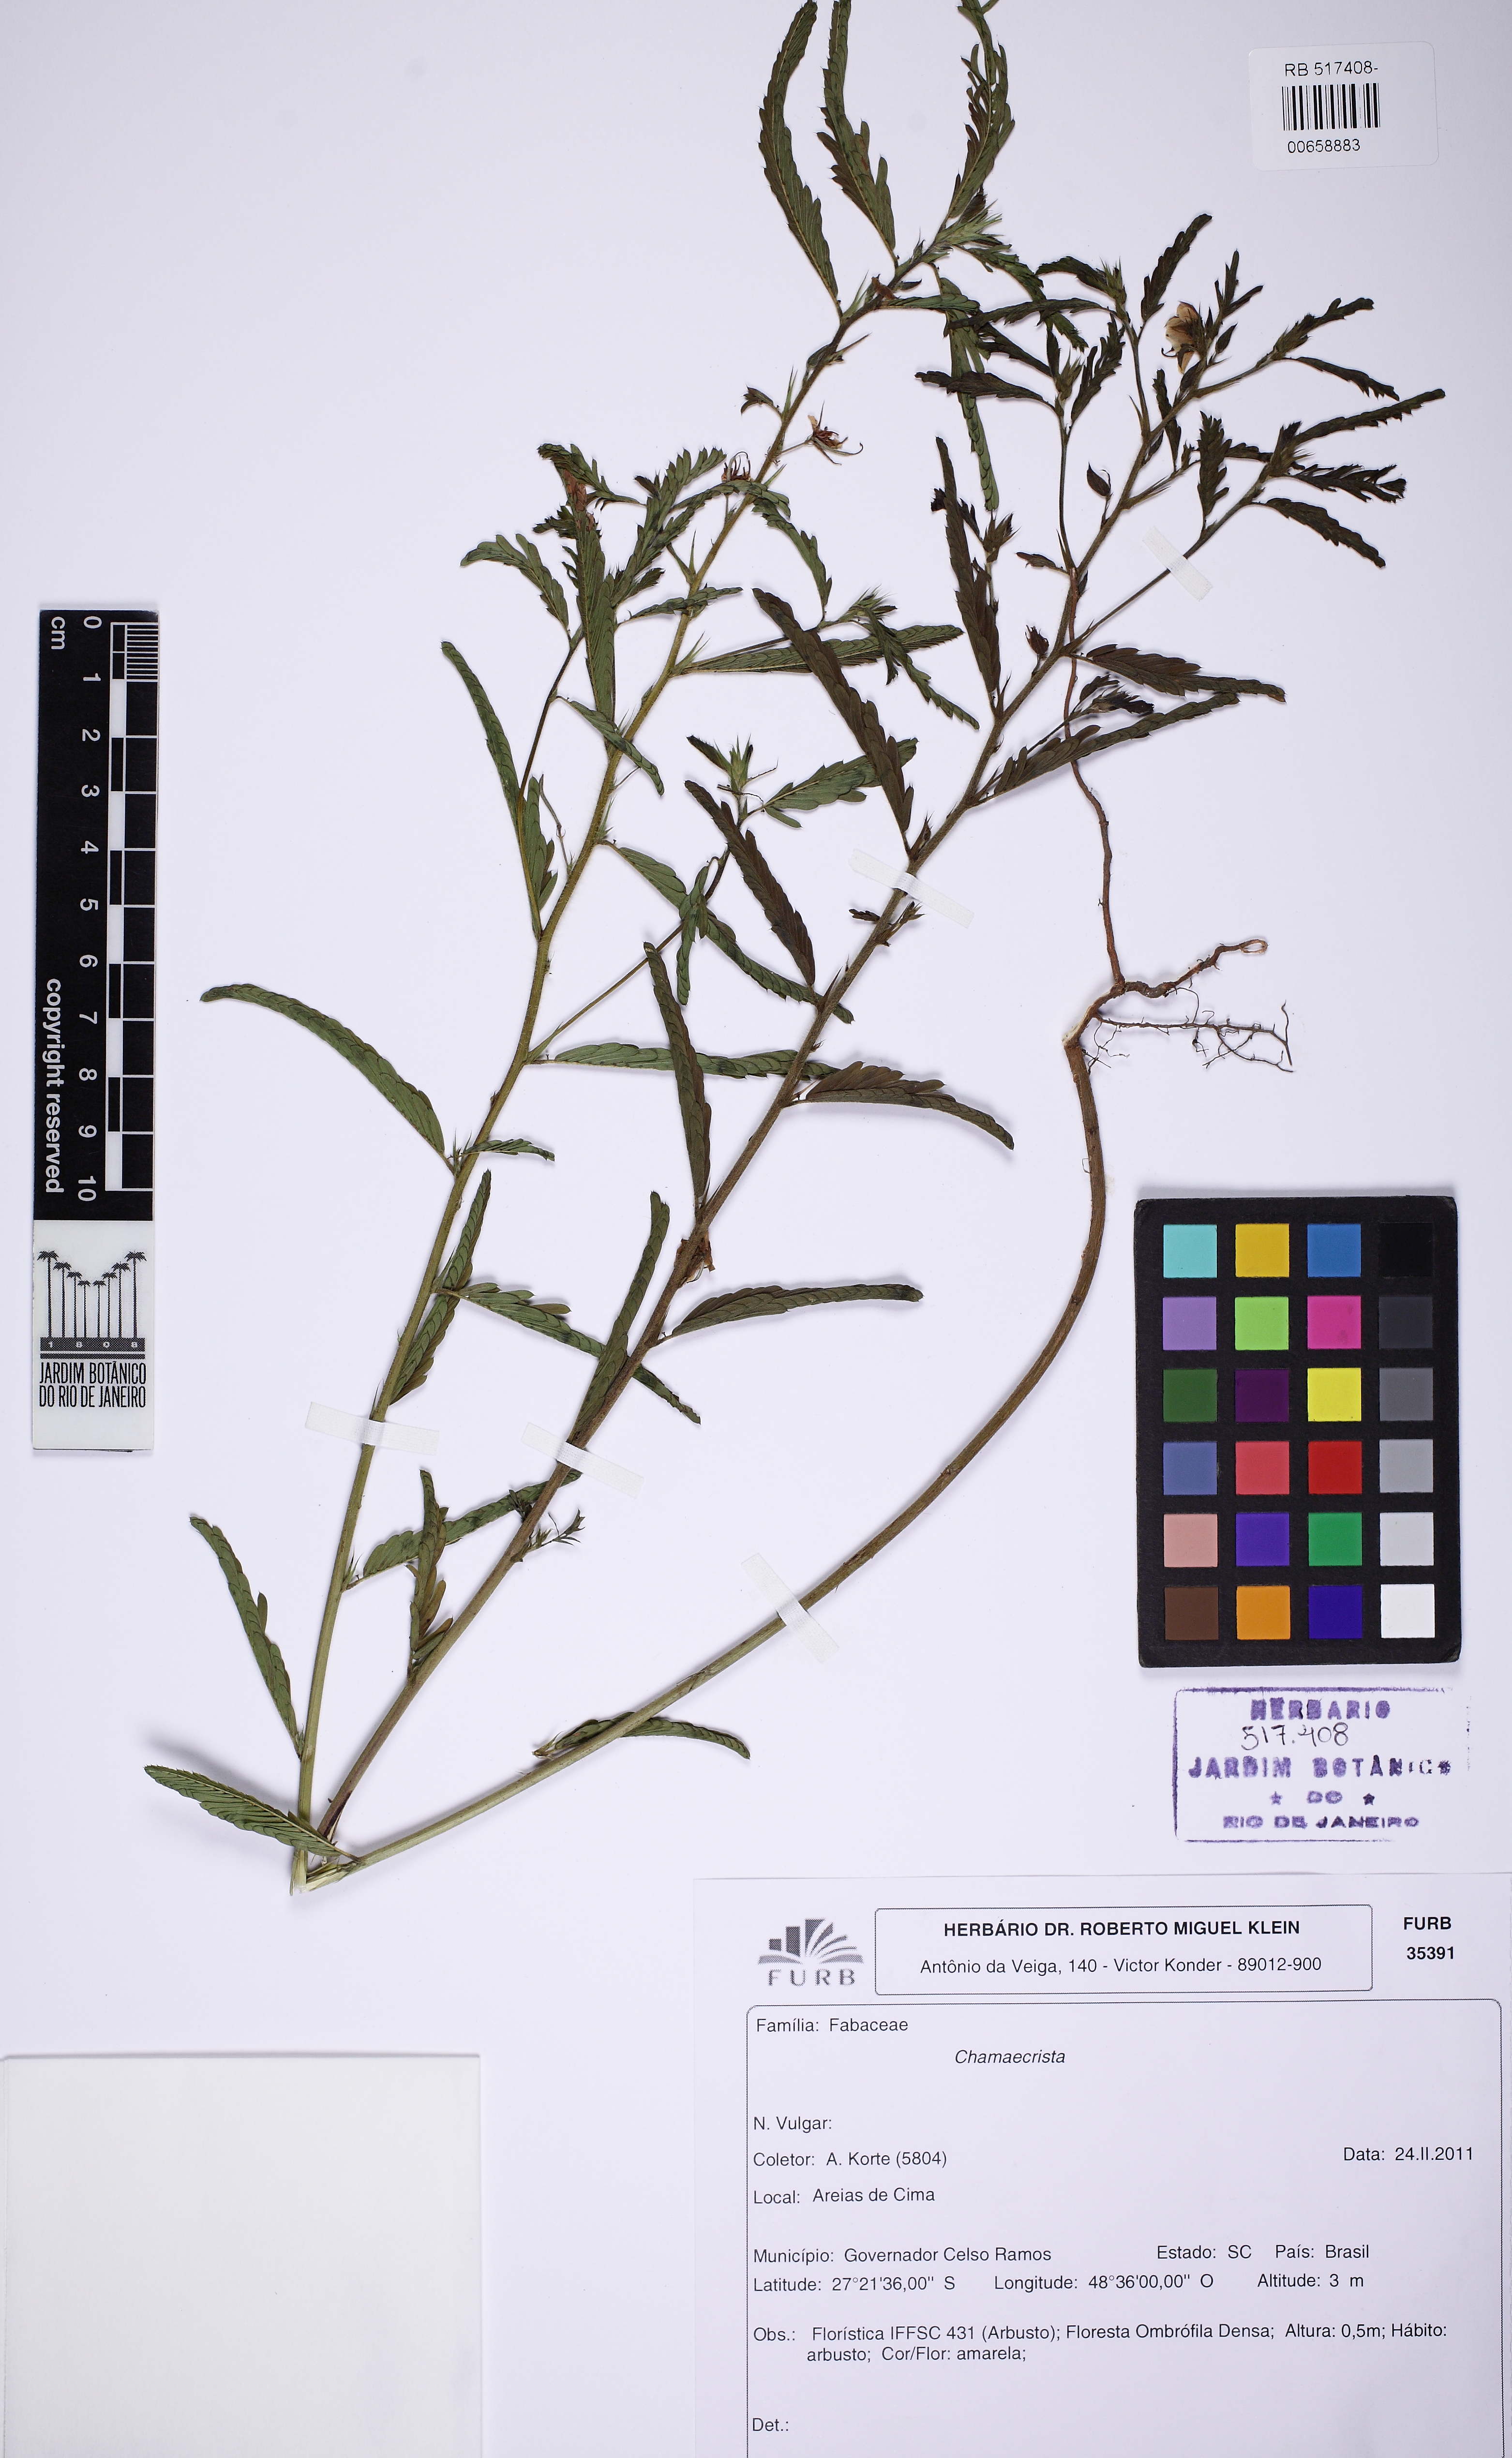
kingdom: Plantae
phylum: Tracheophyta
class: Magnoliopsida
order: Fabales
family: Fabaceae
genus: Chamaecrista
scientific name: Chamaecrista
